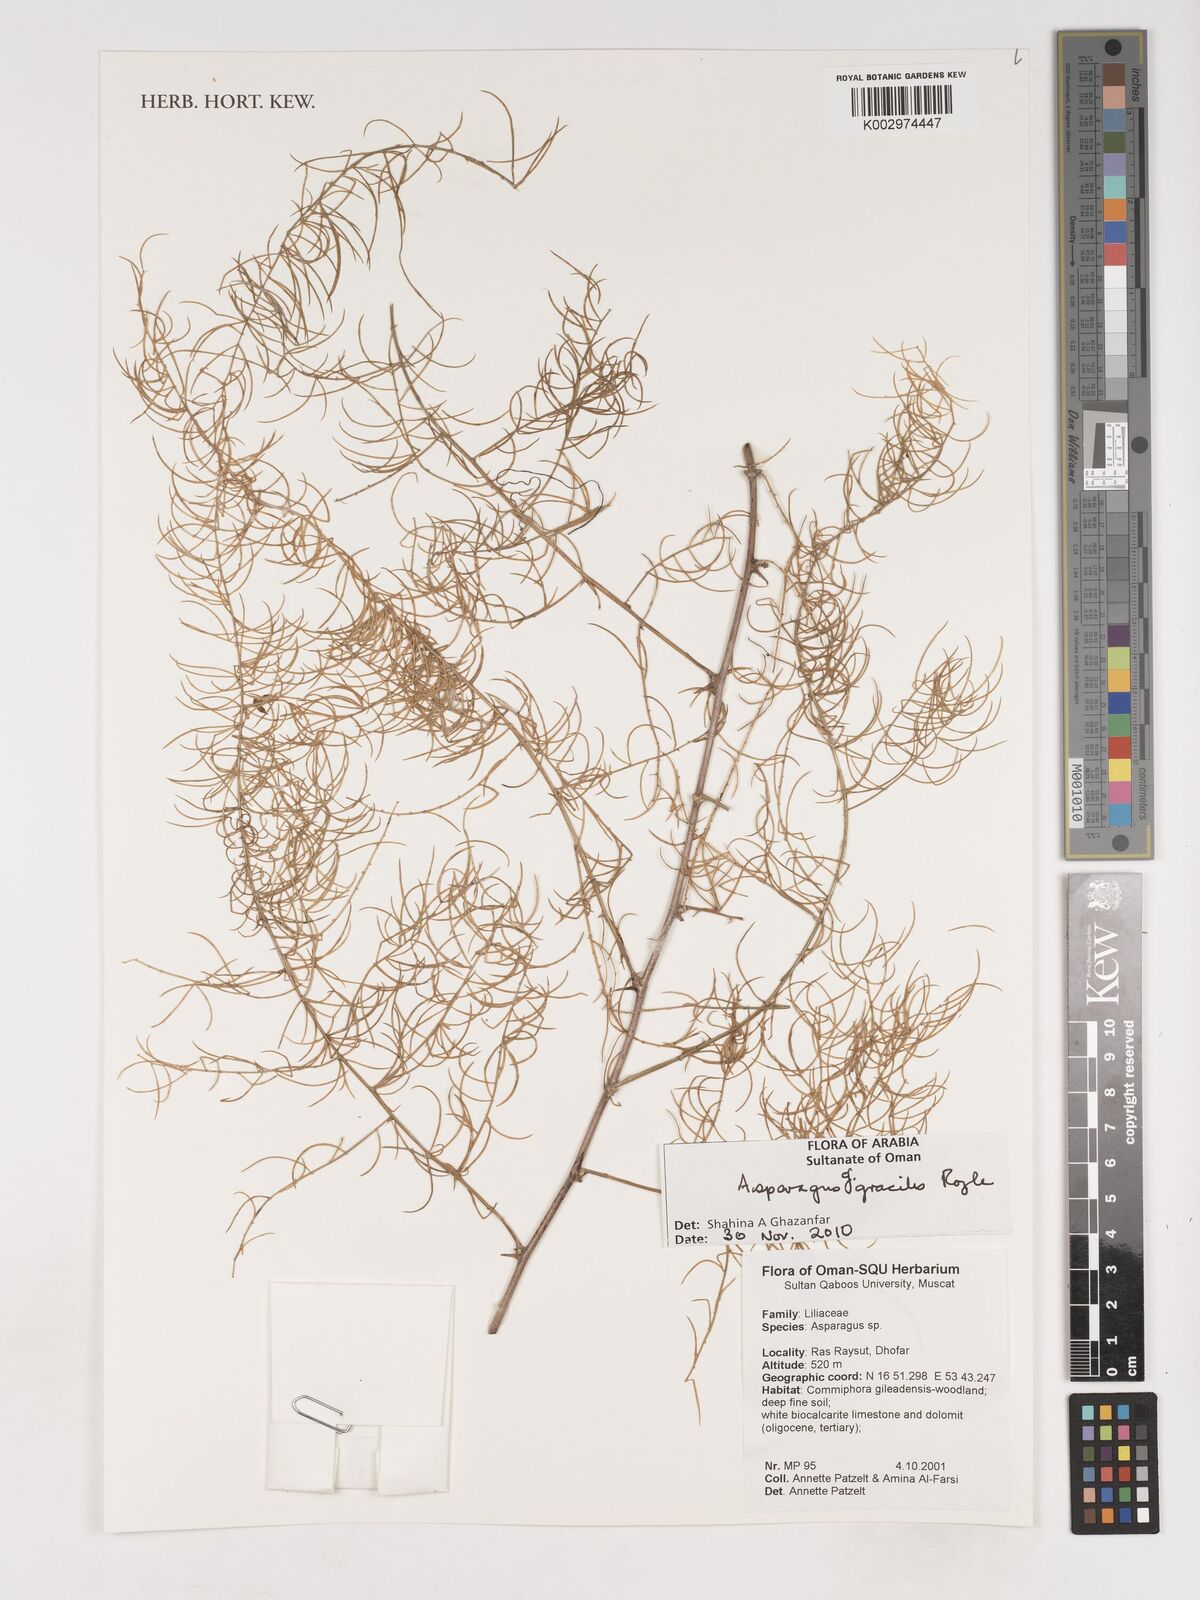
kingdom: Plantae
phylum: Tracheophyta
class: Liliopsida
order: Asparagales
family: Asparagaceae
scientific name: Asparagaceae
